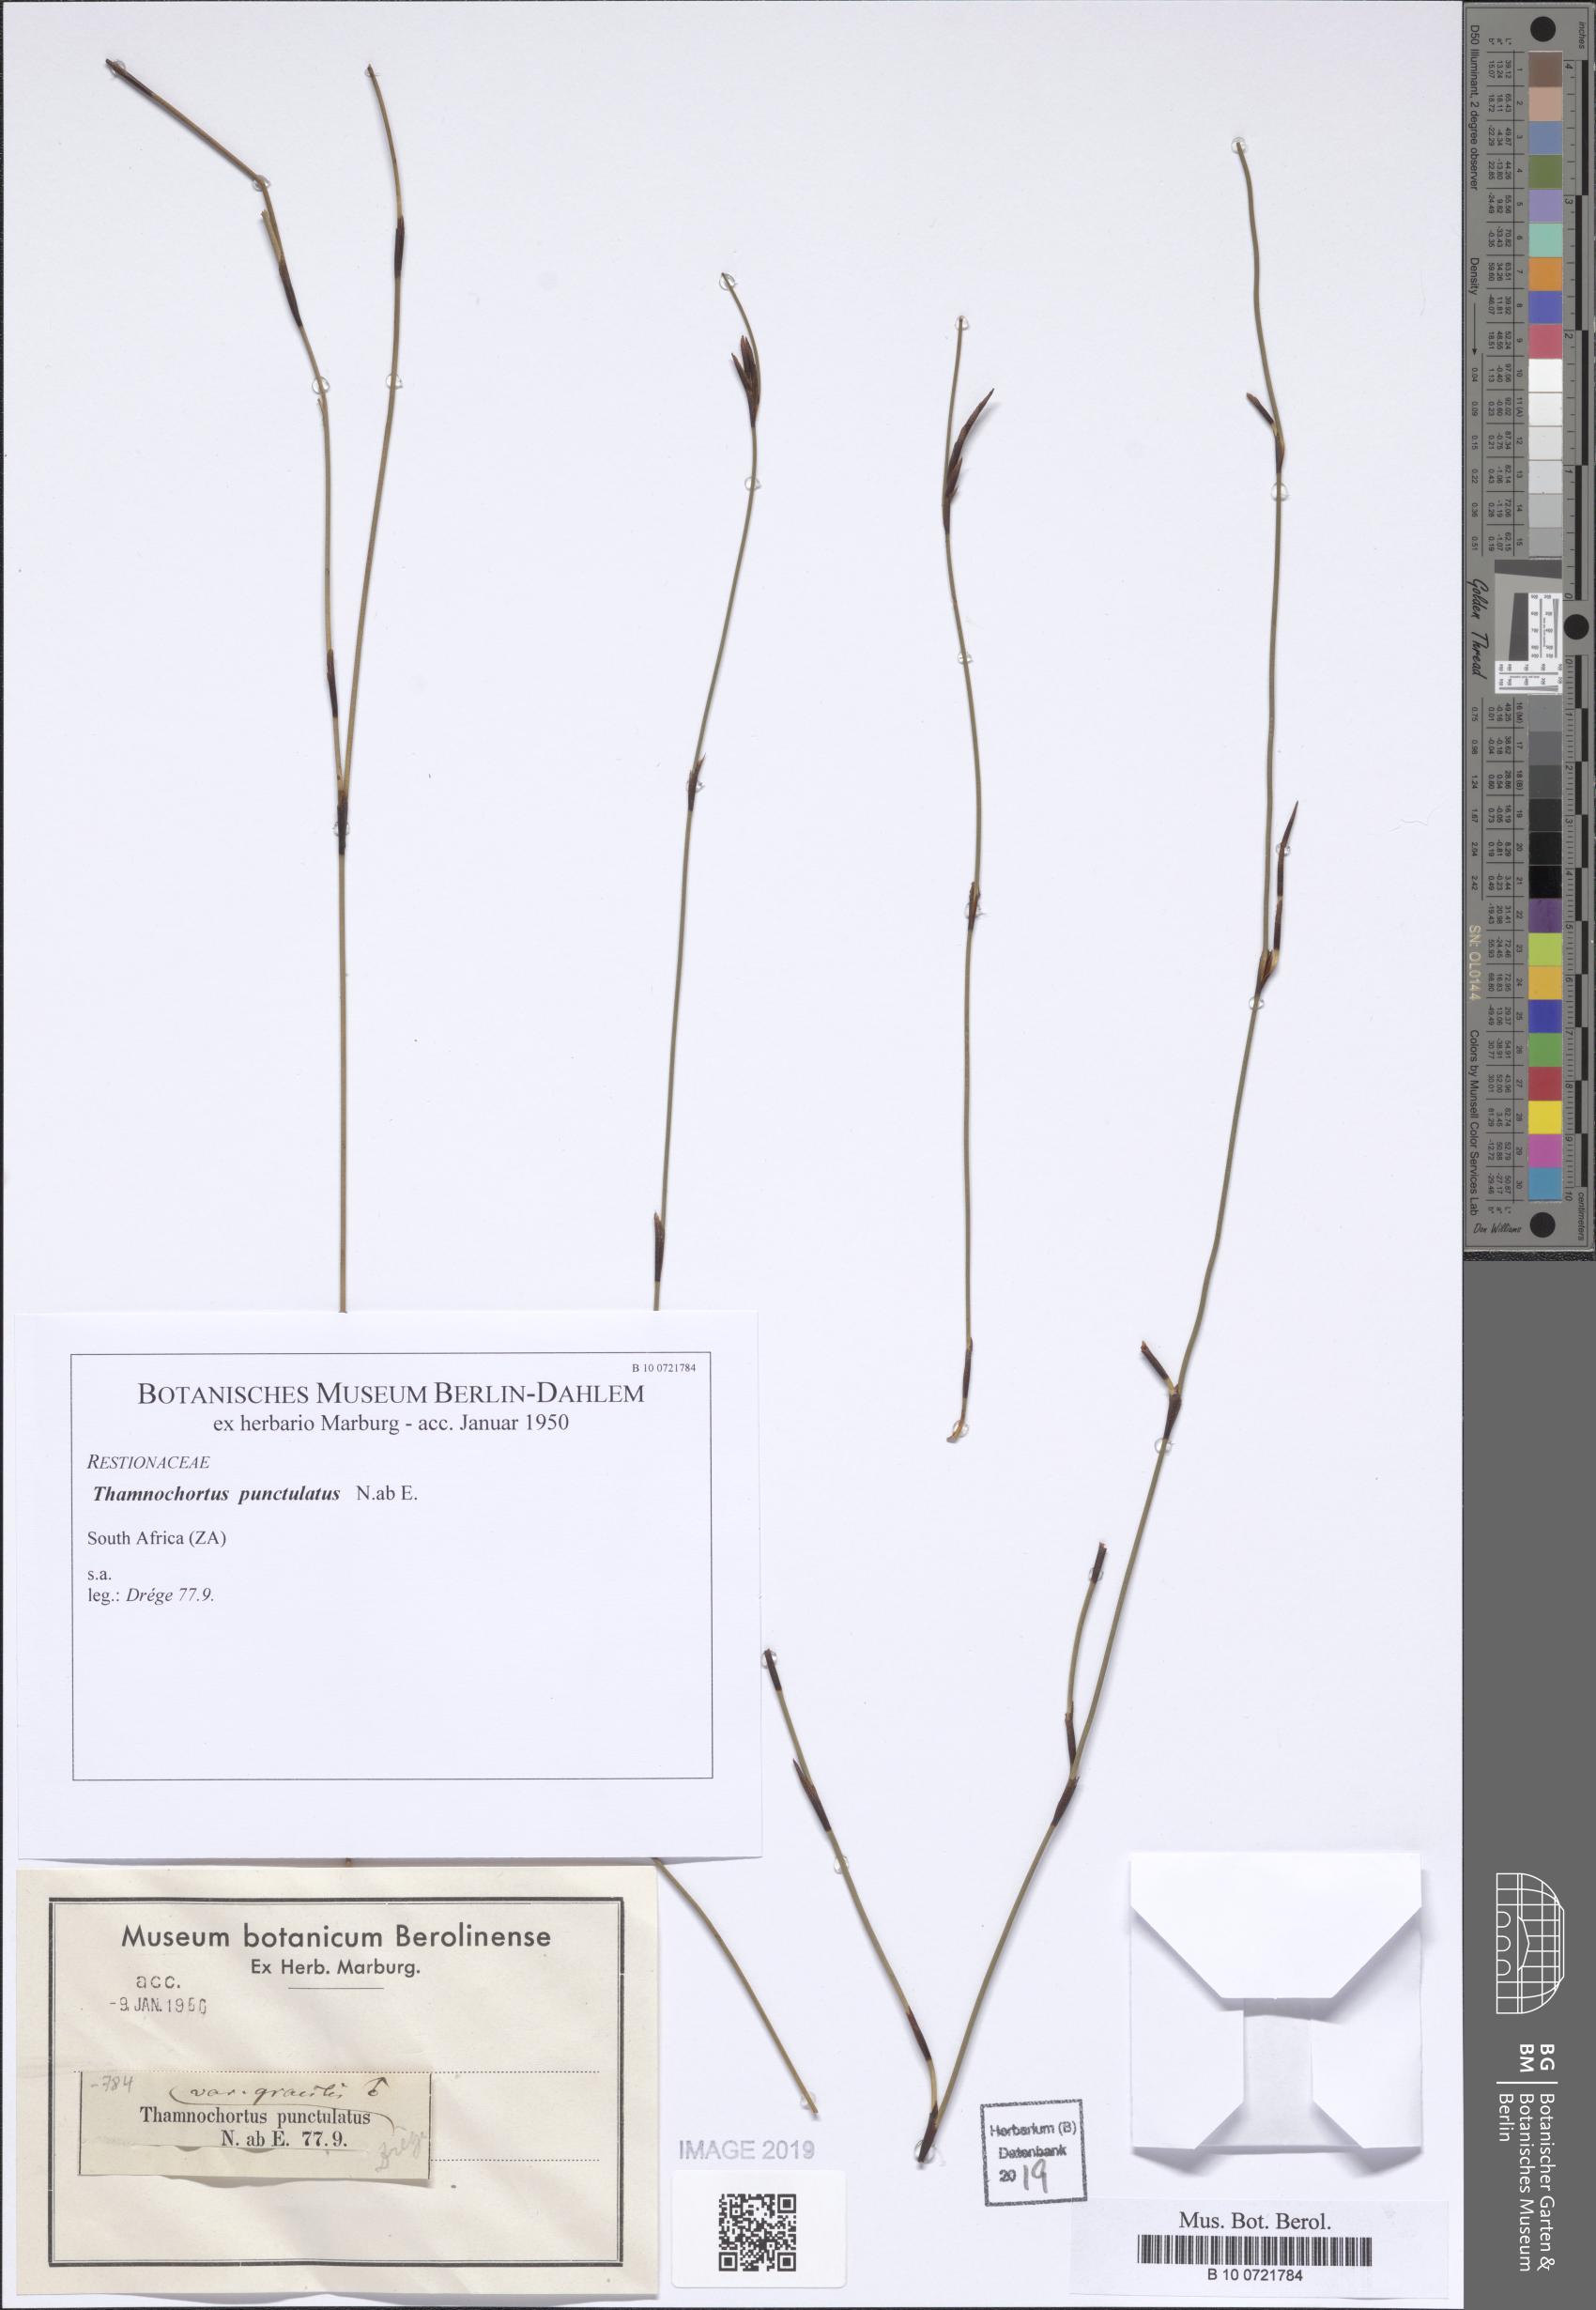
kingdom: Plantae
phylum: Tracheophyta
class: Liliopsida
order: Poales
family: Restionaceae
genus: Thamnochortus
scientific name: Thamnochortus punctatus
